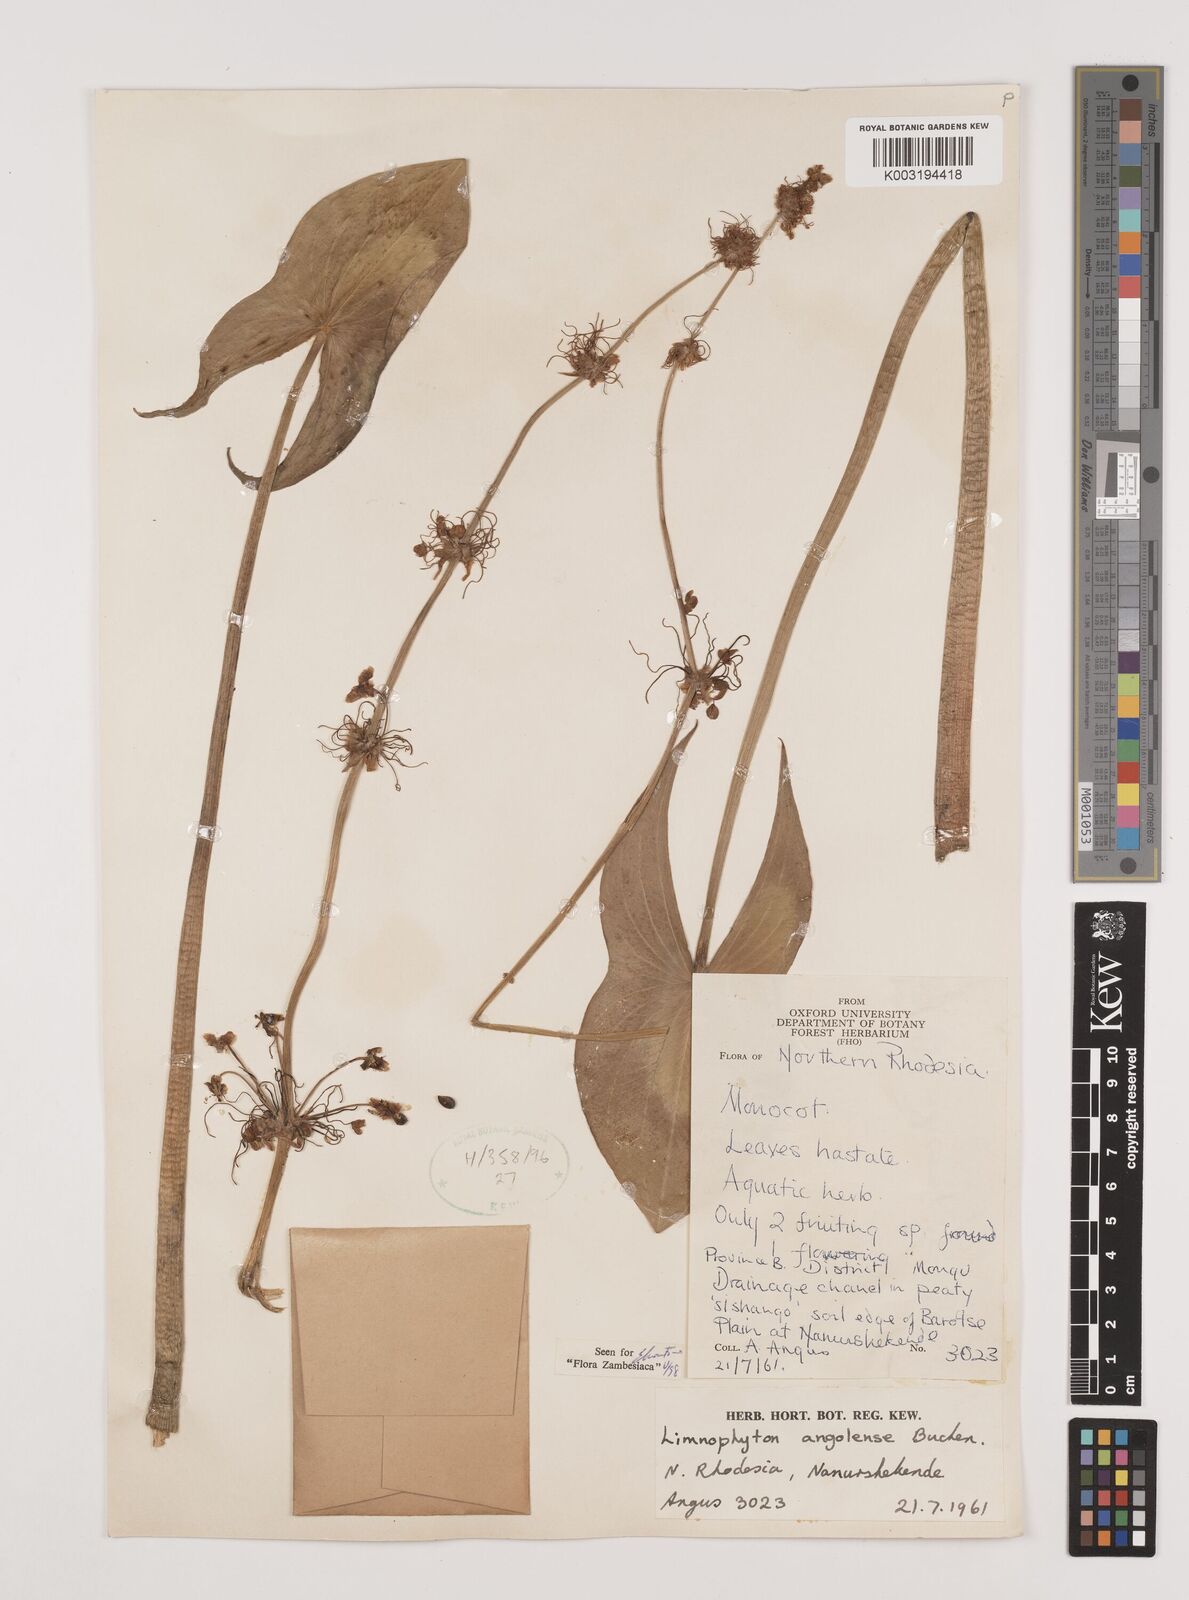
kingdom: Plantae
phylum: Tracheophyta
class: Liliopsida
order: Alismatales
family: Alismataceae
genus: Limnophyton
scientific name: Limnophyton angolense
